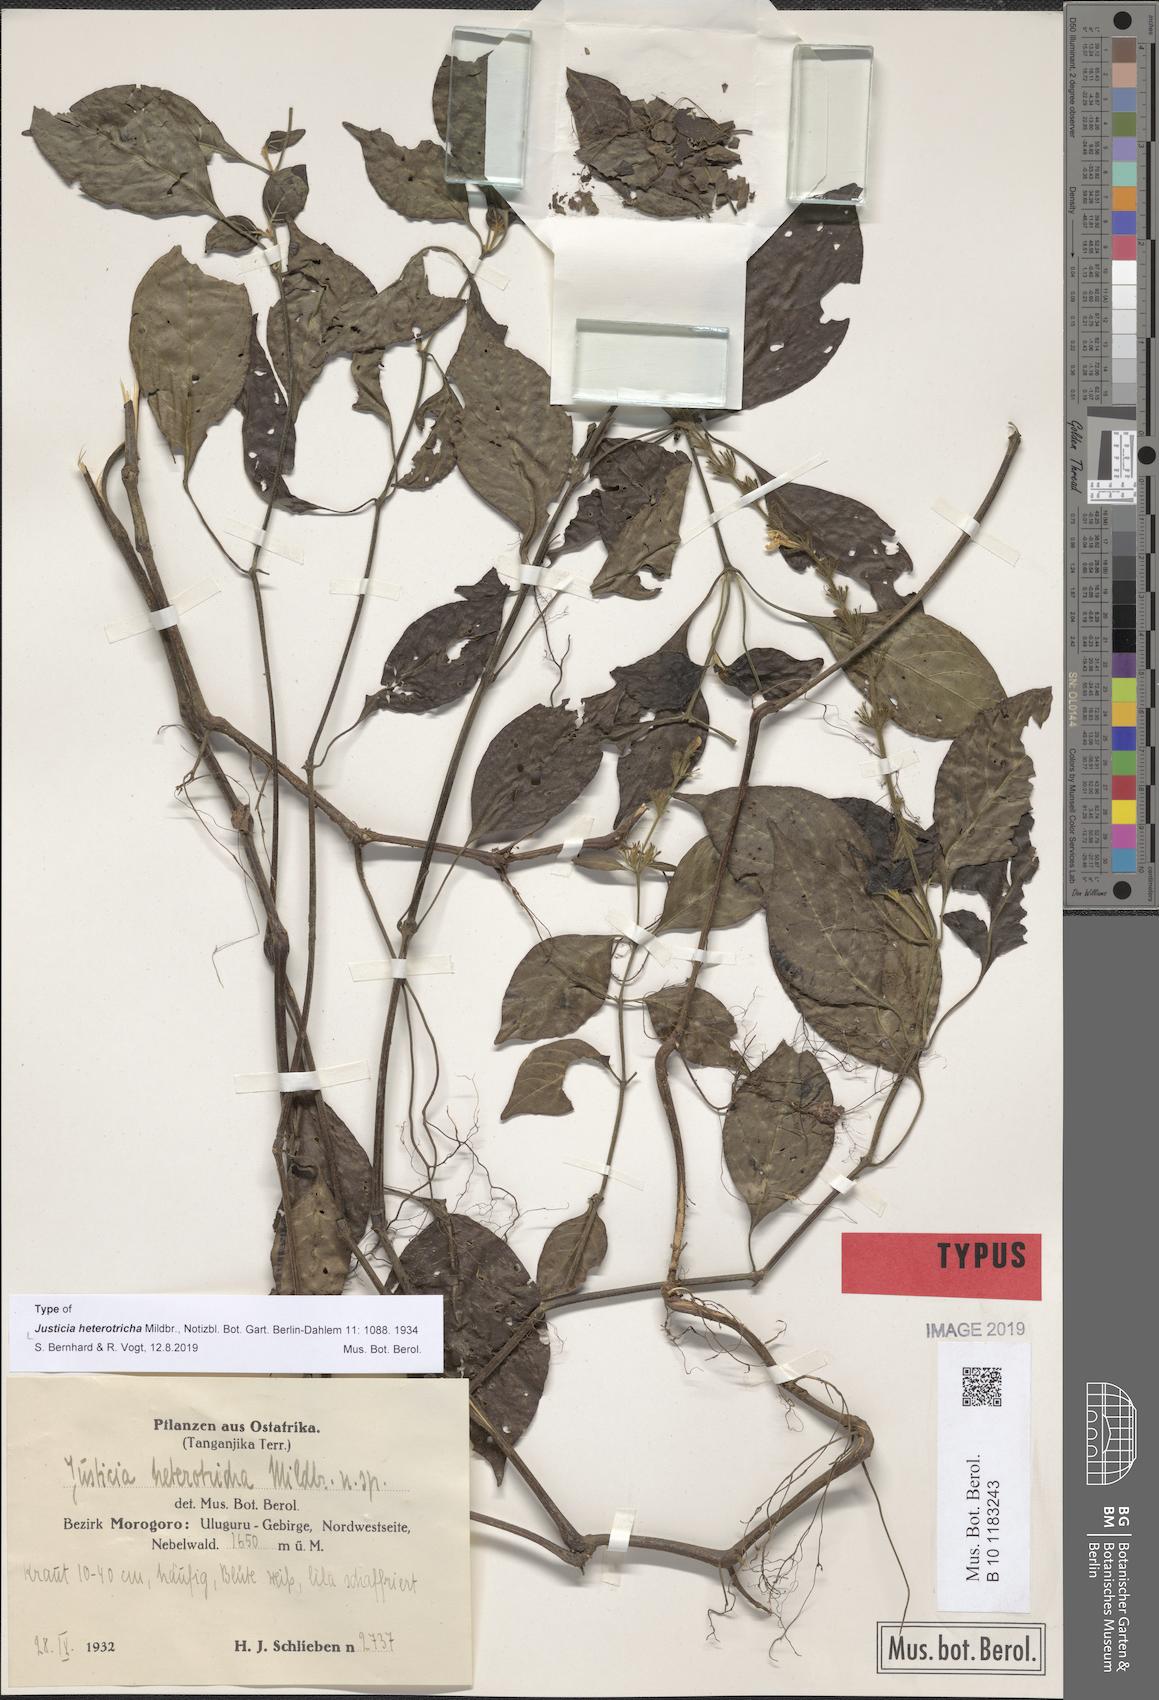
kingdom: Plantae
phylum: Tracheophyta
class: Magnoliopsida
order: Lamiales
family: Acanthaceae
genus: Justicia
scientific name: Justicia heterotricha
